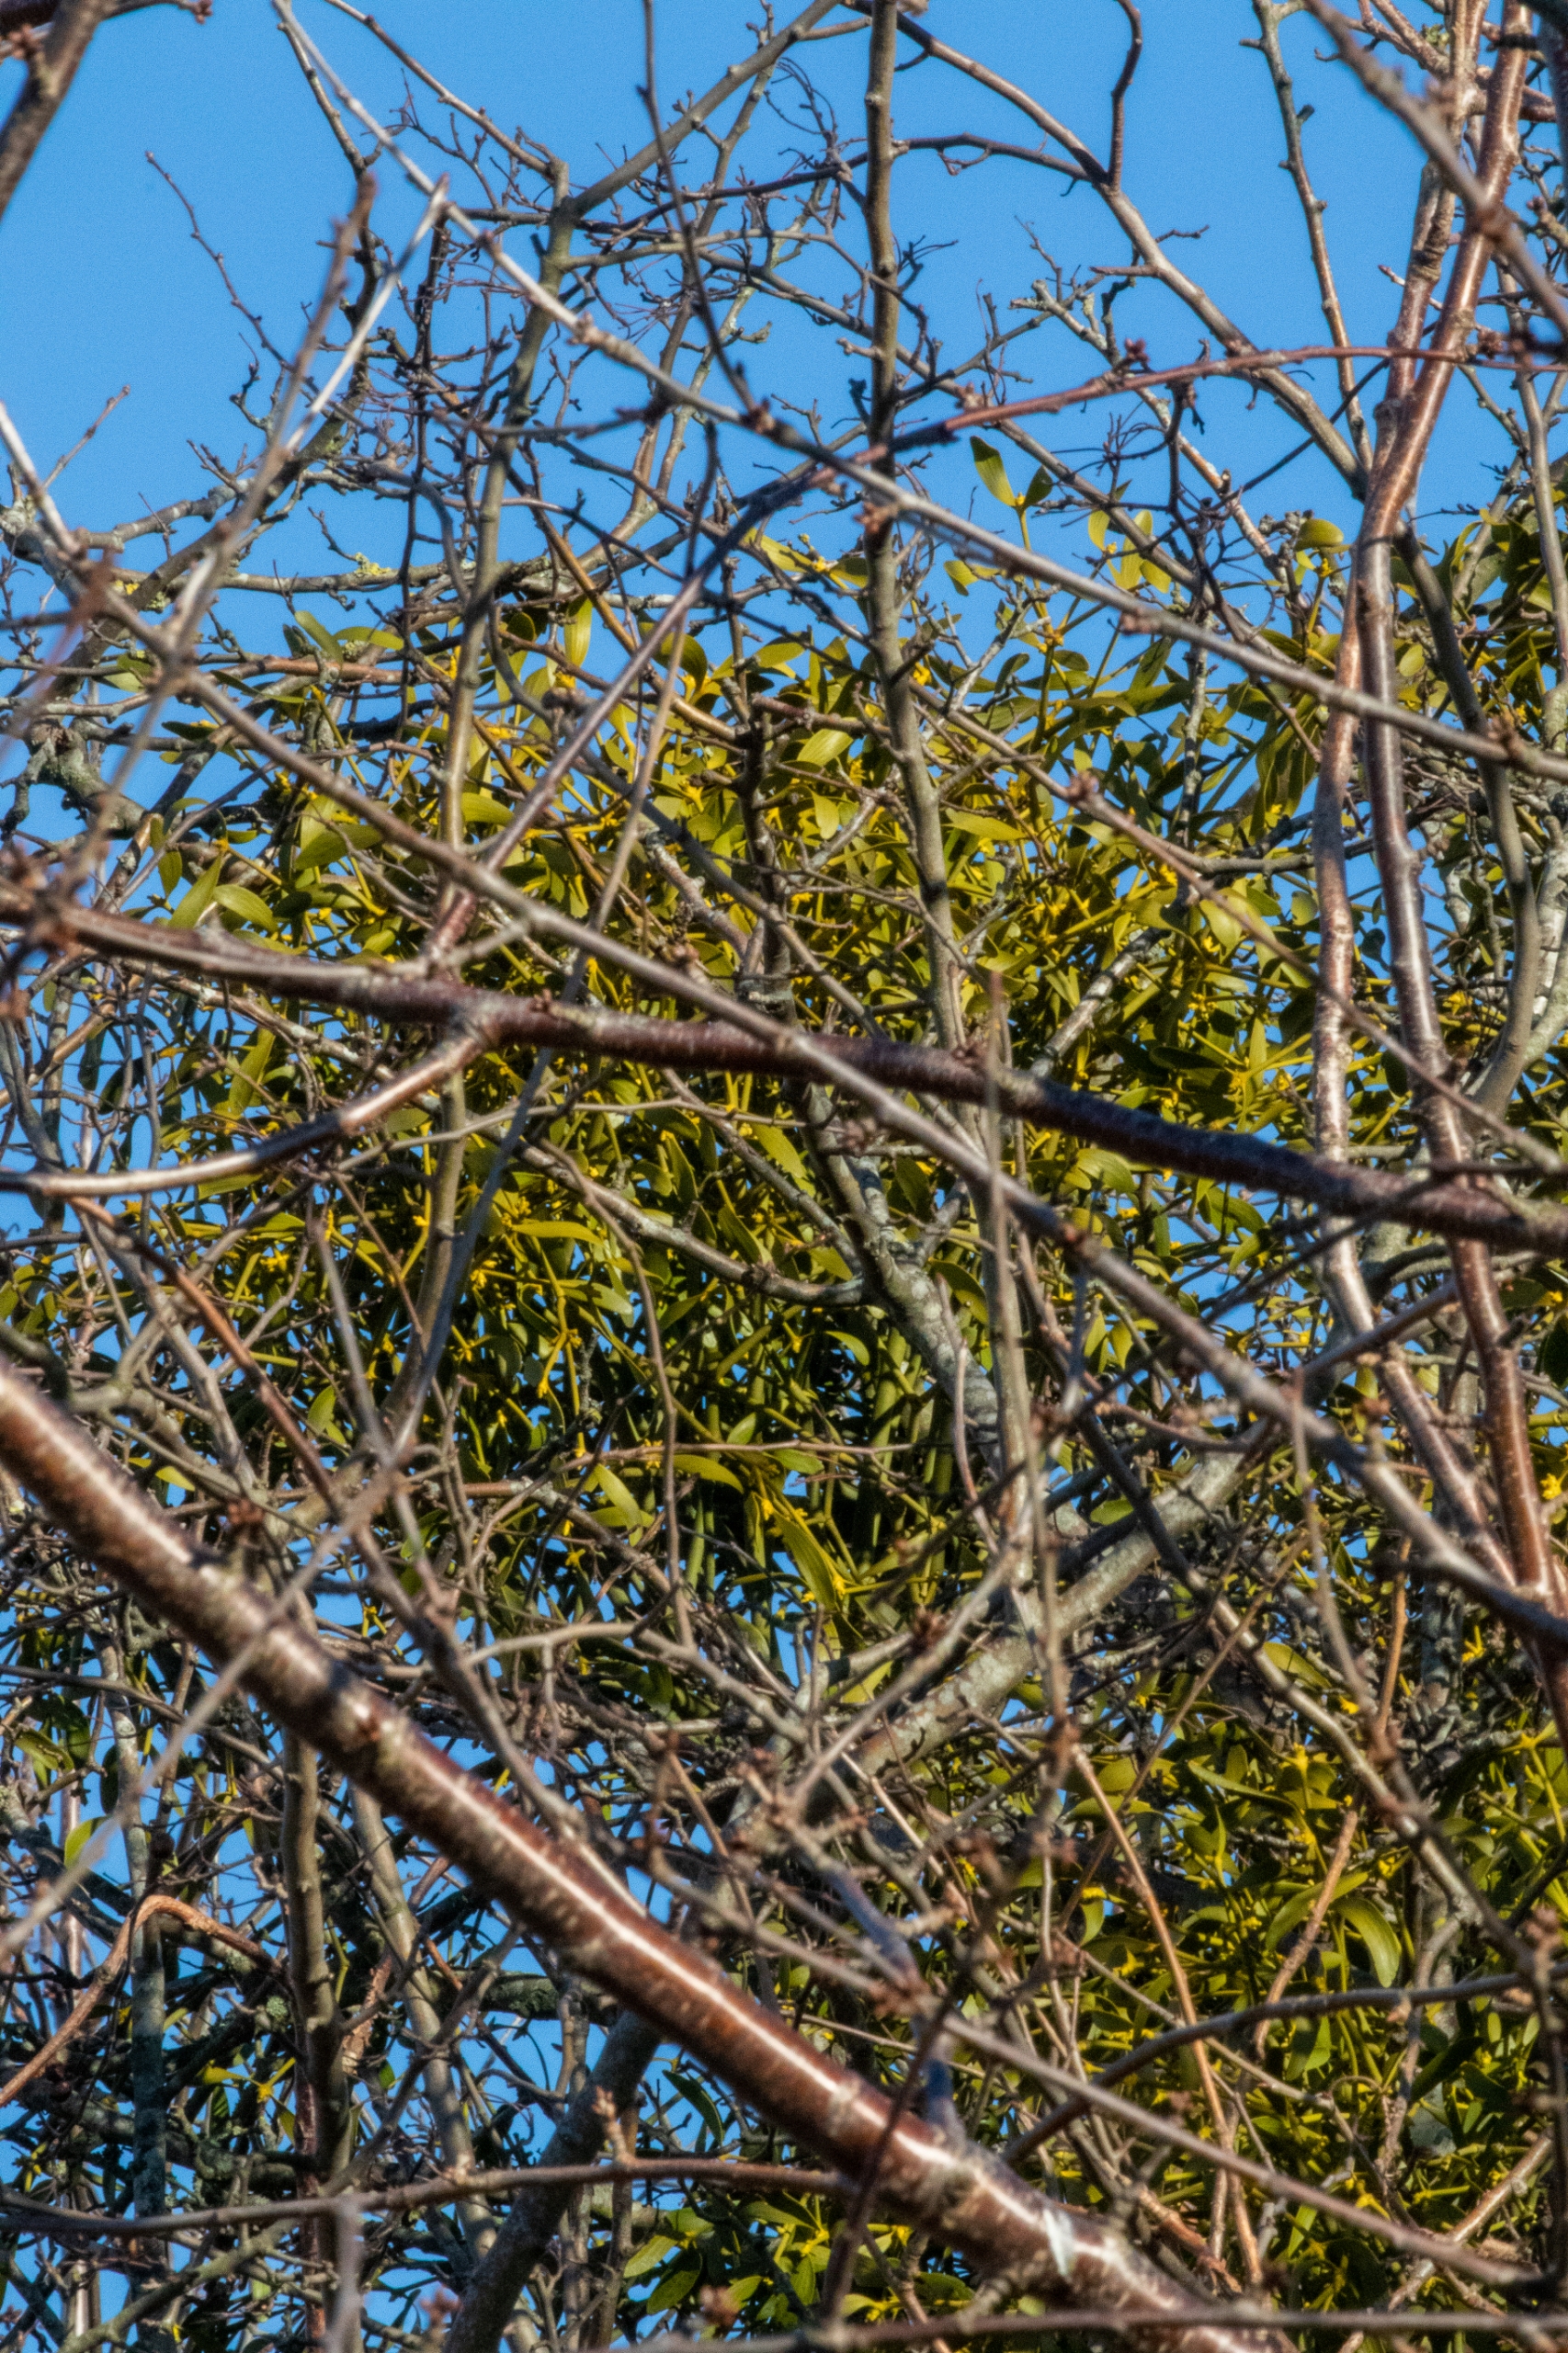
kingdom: Plantae
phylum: Tracheophyta
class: Magnoliopsida
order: Santalales
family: Viscaceae
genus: Viscum
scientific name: Viscum album
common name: Mistelten
